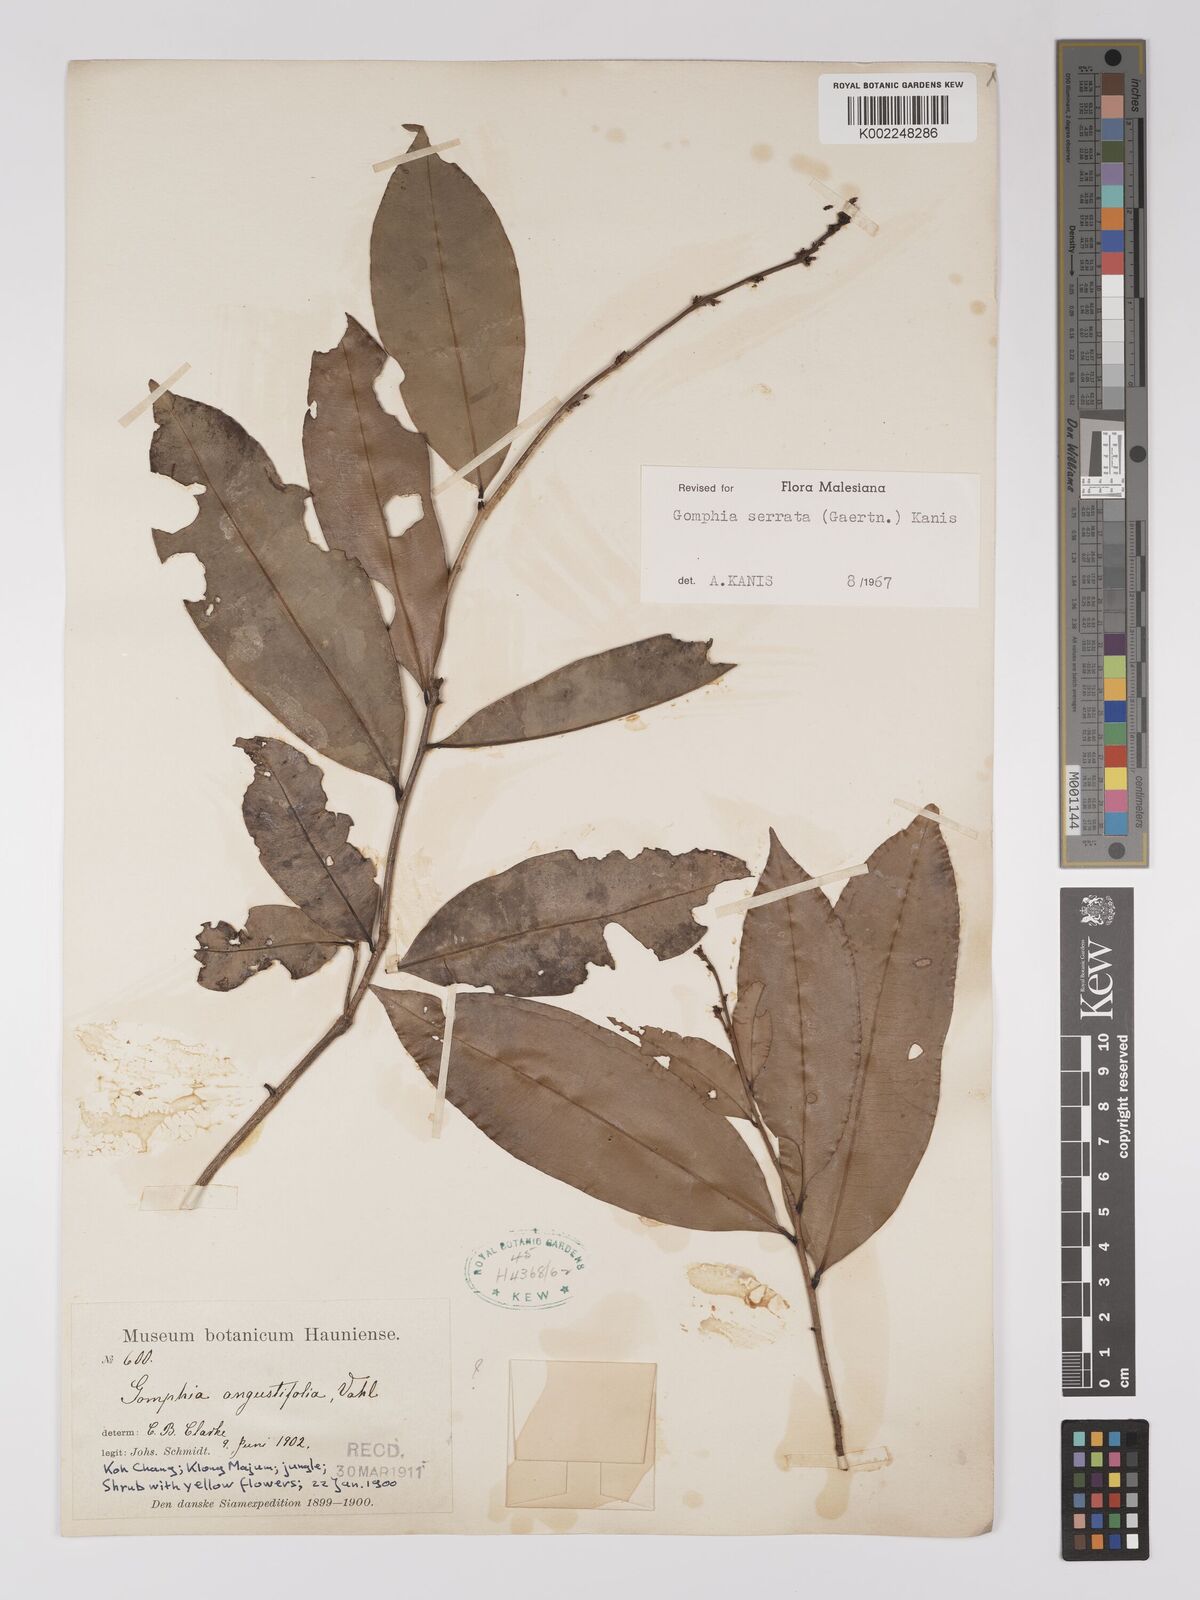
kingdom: Plantae
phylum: Tracheophyta
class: Magnoliopsida
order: Malpighiales
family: Ochnaceae
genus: Gomphia
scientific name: Gomphia serrata
